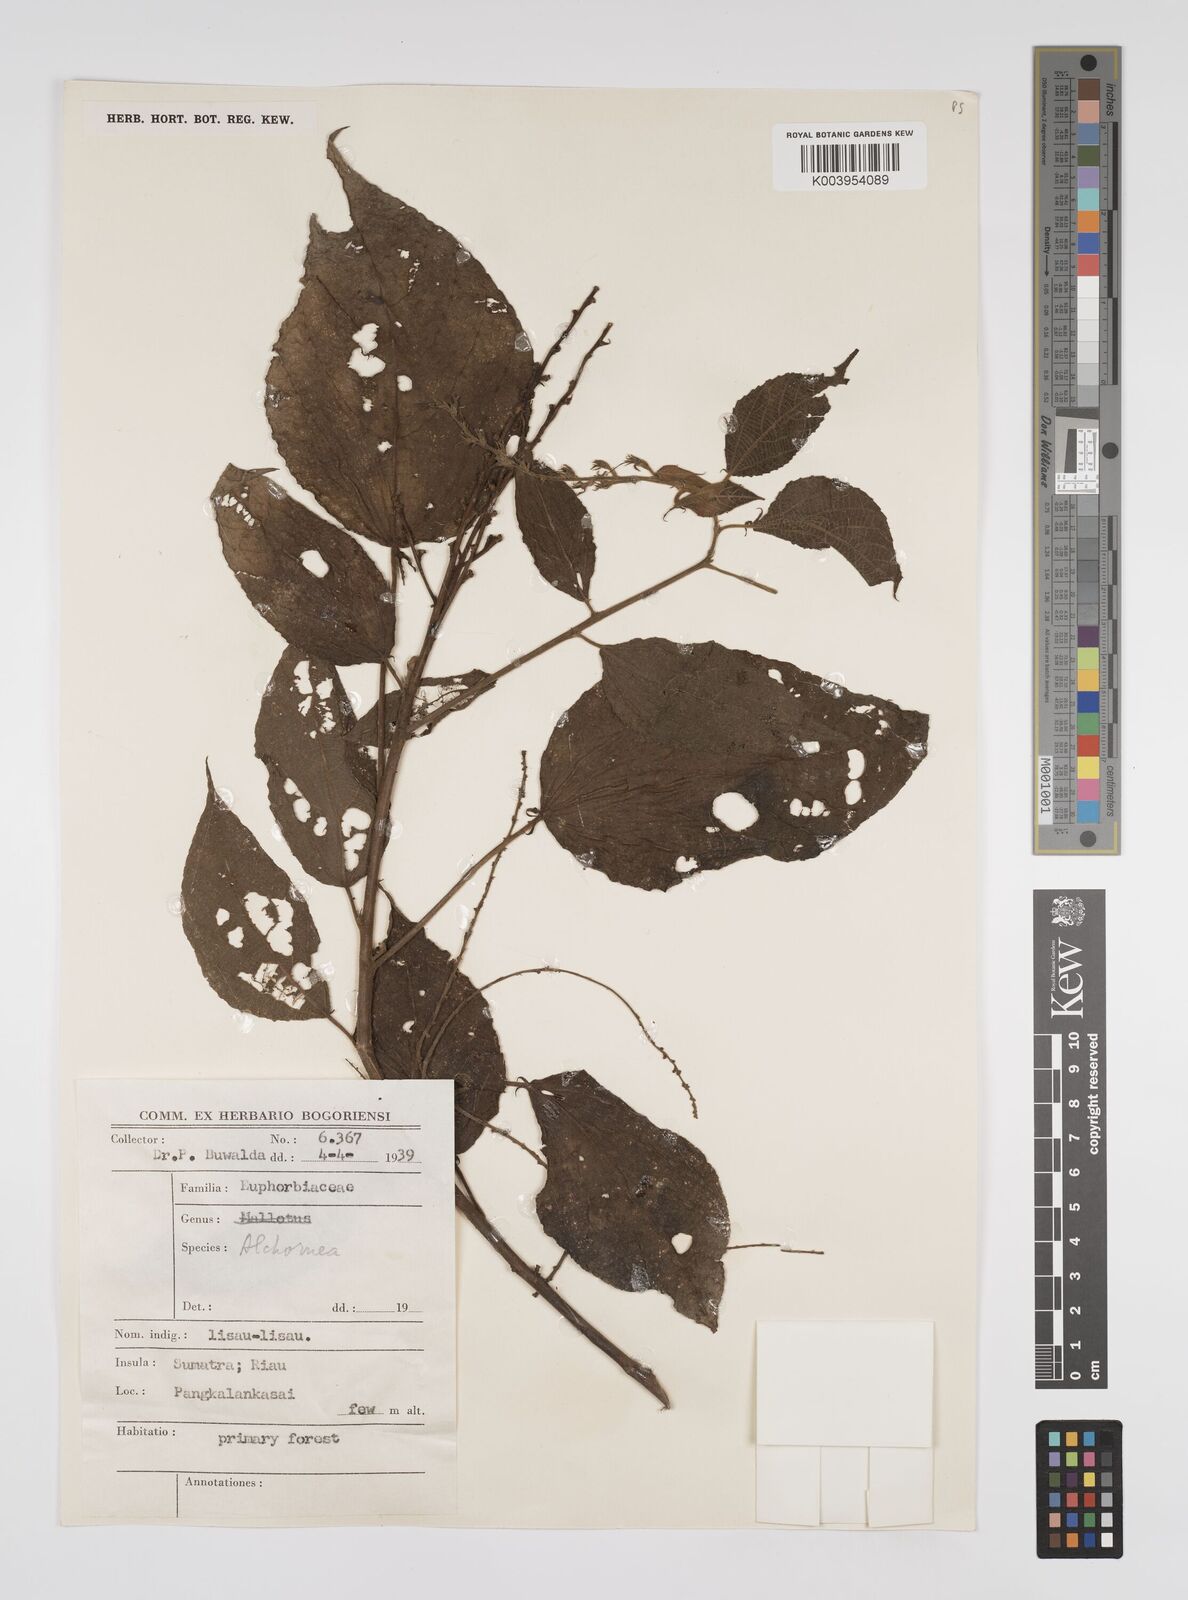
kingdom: Plantae
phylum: Tracheophyta
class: Magnoliopsida
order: Malpighiales
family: Euphorbiaceae
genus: Alchornea
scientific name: Alchornea tiliifolia
